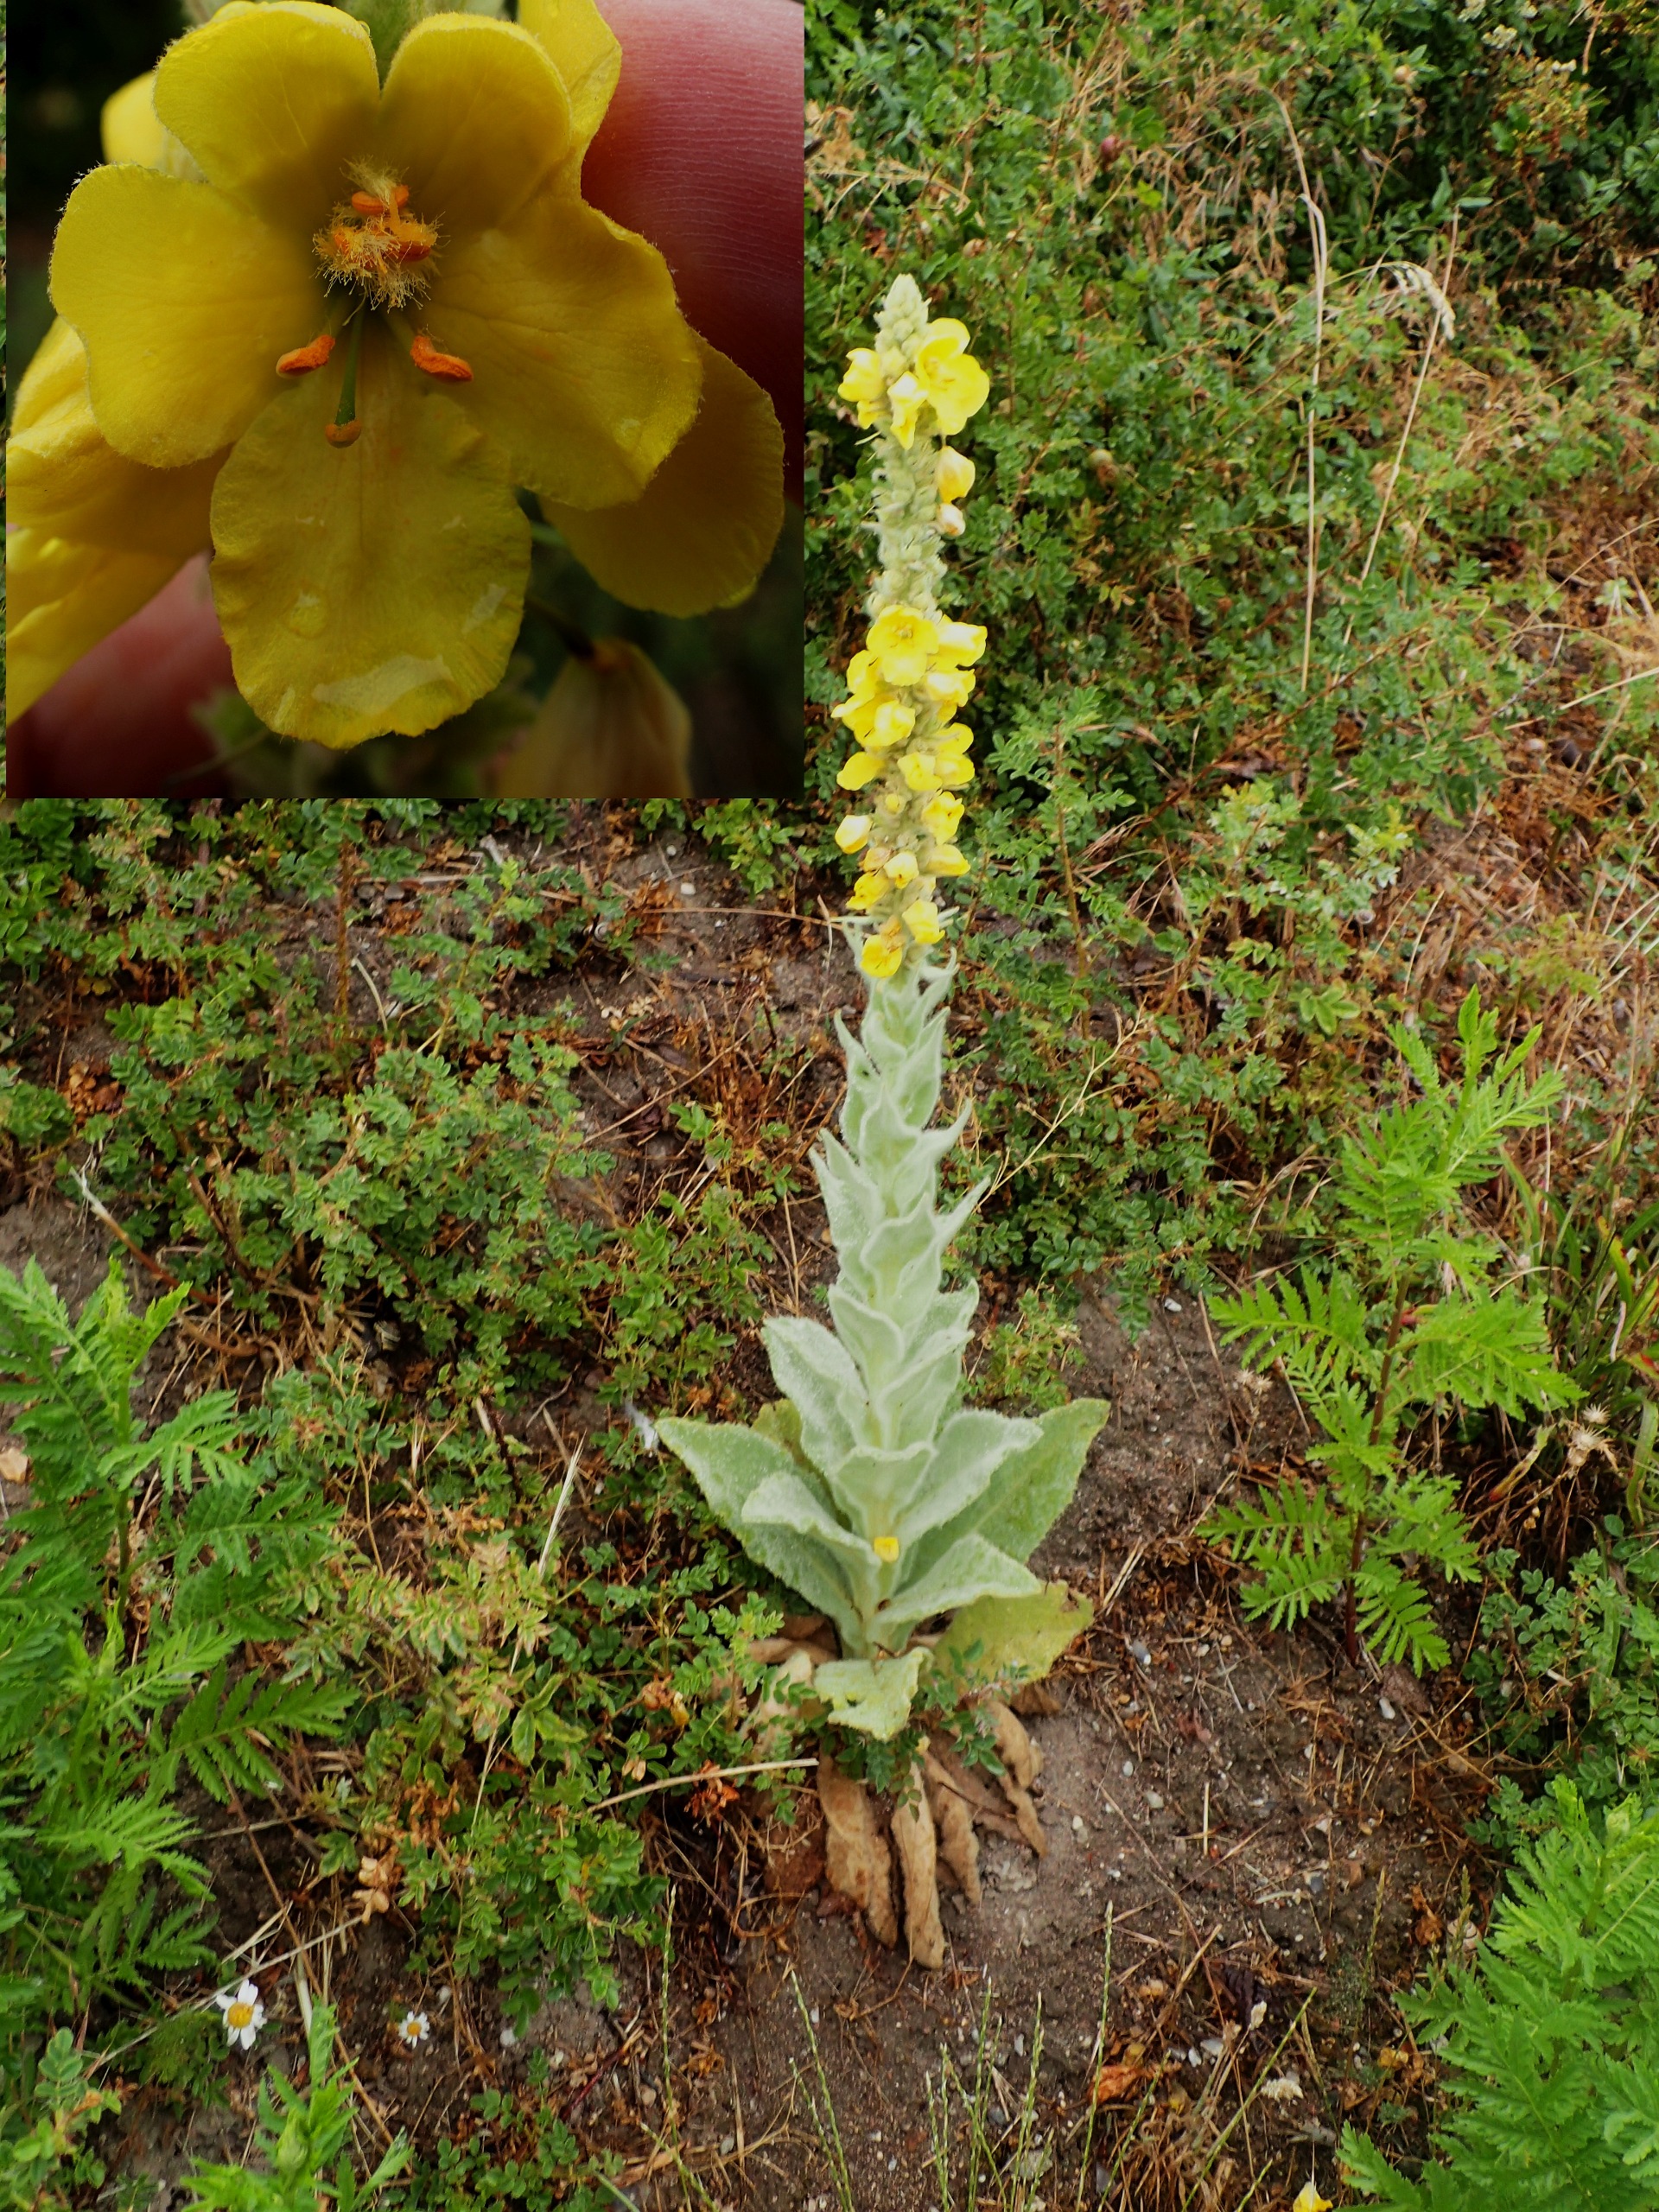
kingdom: Plantae
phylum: Tracheophyta
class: Magnoliopsida
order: Lamiales
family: Scrophulariaceae
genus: Verbascum
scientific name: Verbascum thapsus
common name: Filtbladet kongelys
